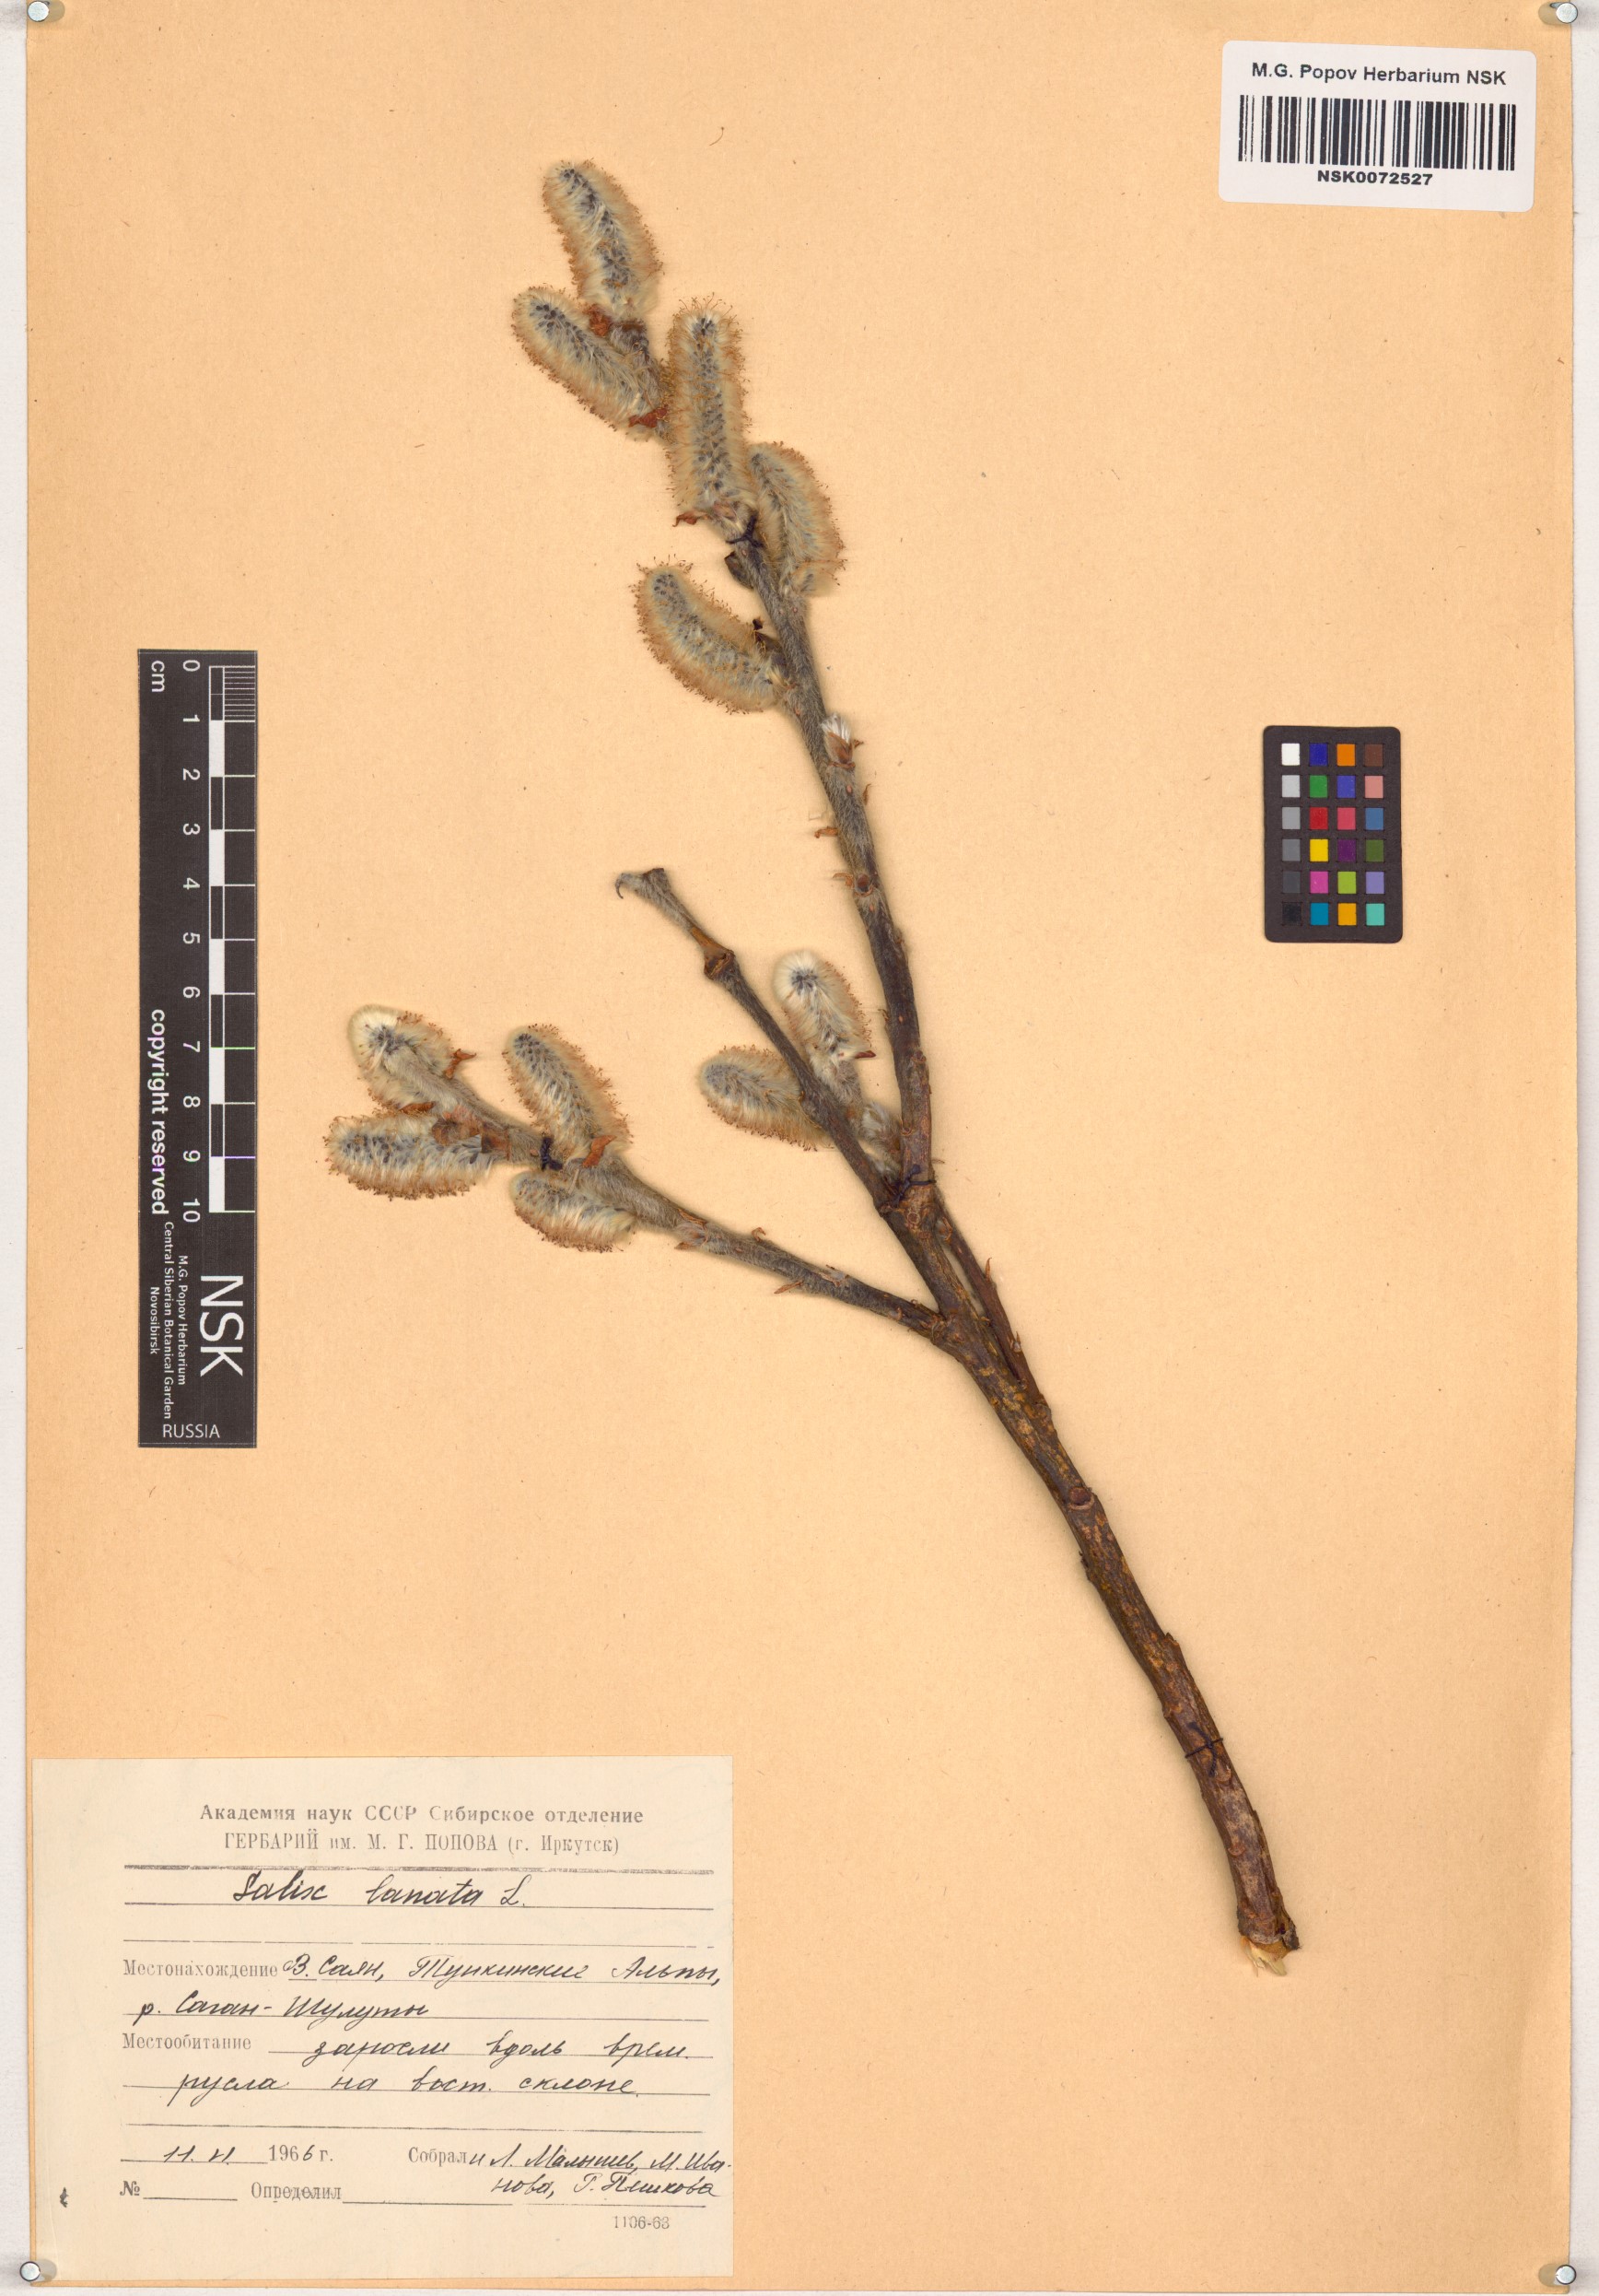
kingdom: Plantae
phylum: Tracheophyta
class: Magnoliopsida
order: Malpighiales
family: Salicaceae
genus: Salix
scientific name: Salix lanata
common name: Woolly willow
